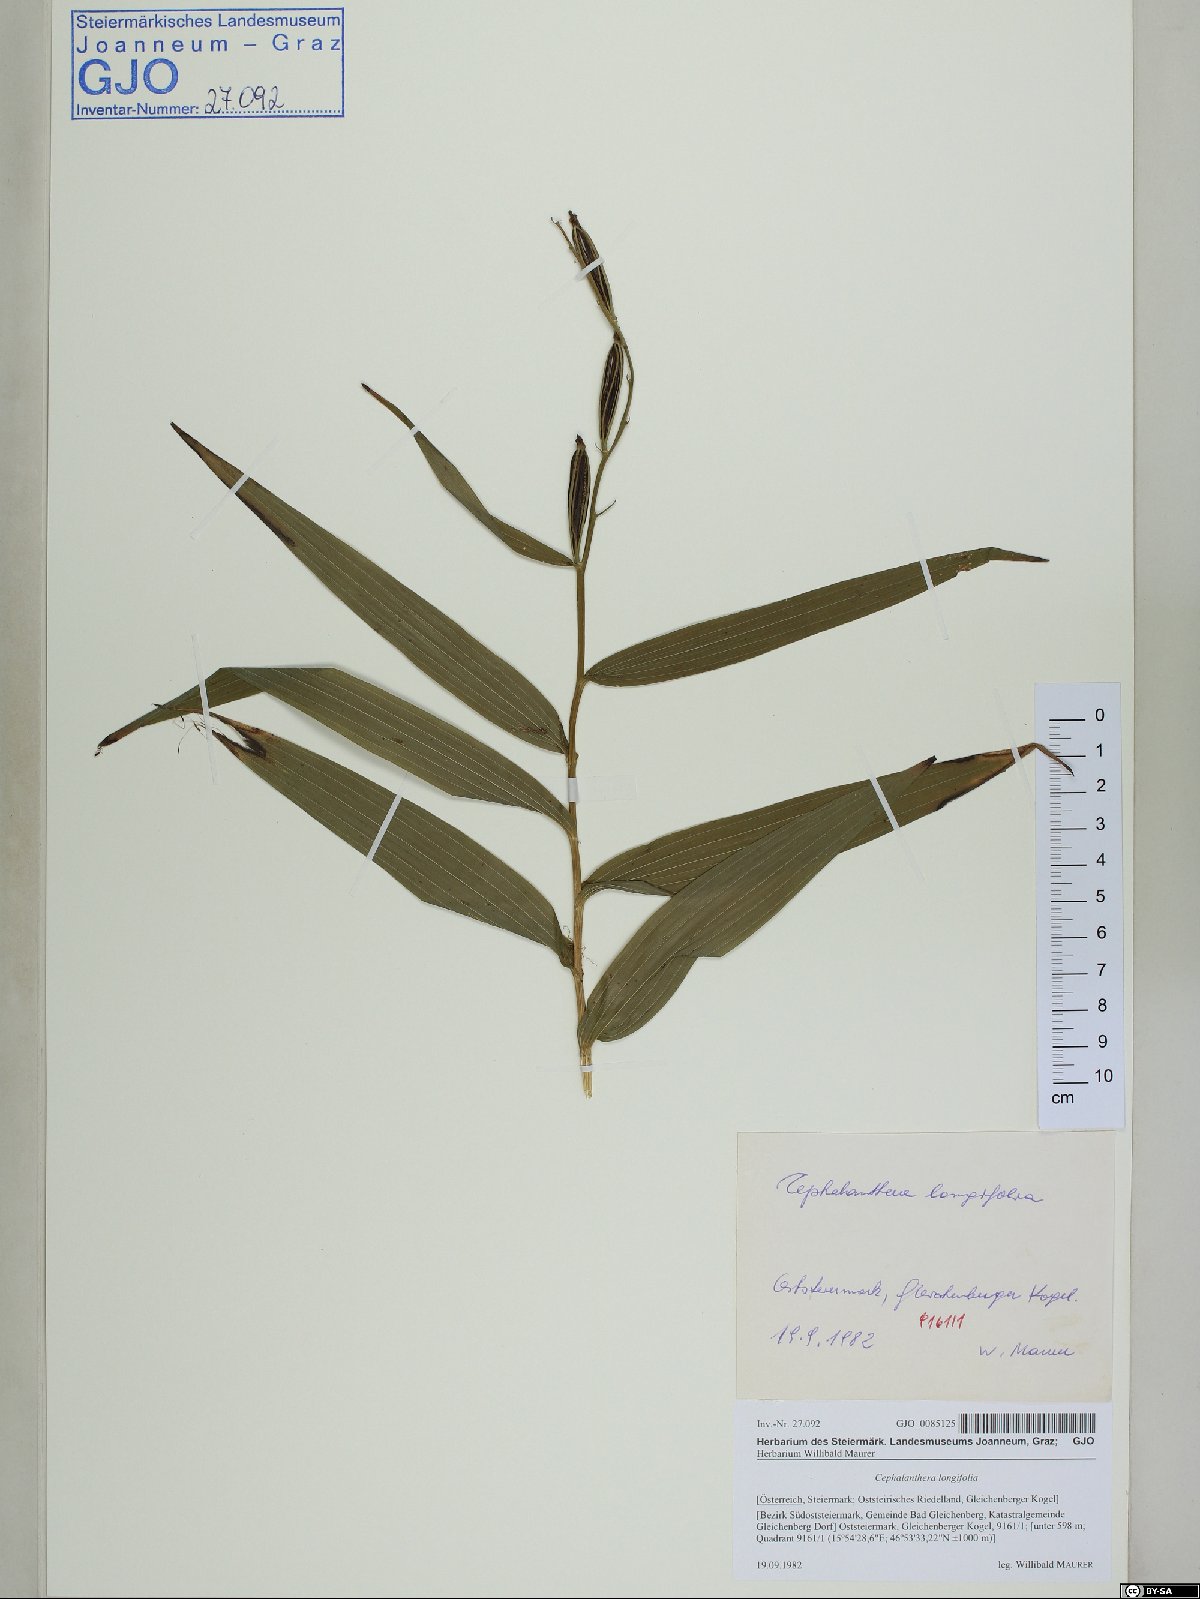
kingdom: Plantae
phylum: Tracheophyta
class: Liliopsida
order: Asparagales
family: Orchidaceae
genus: Cephalanthera
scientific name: Cephalanthera longifolia
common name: Narrow-leaved helleborine
